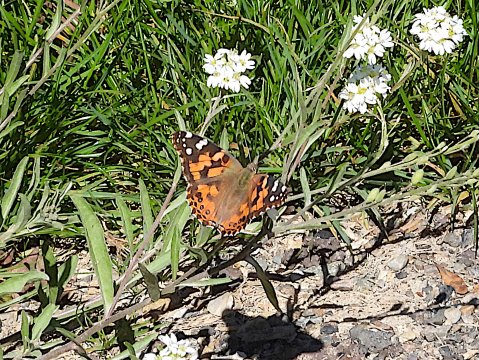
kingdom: Animalia
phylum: Arthropoda
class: Insecta
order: Lepidoptera
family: Nymphalidae
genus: Vanessa
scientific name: Vanessa cardui
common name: Painted Lady
